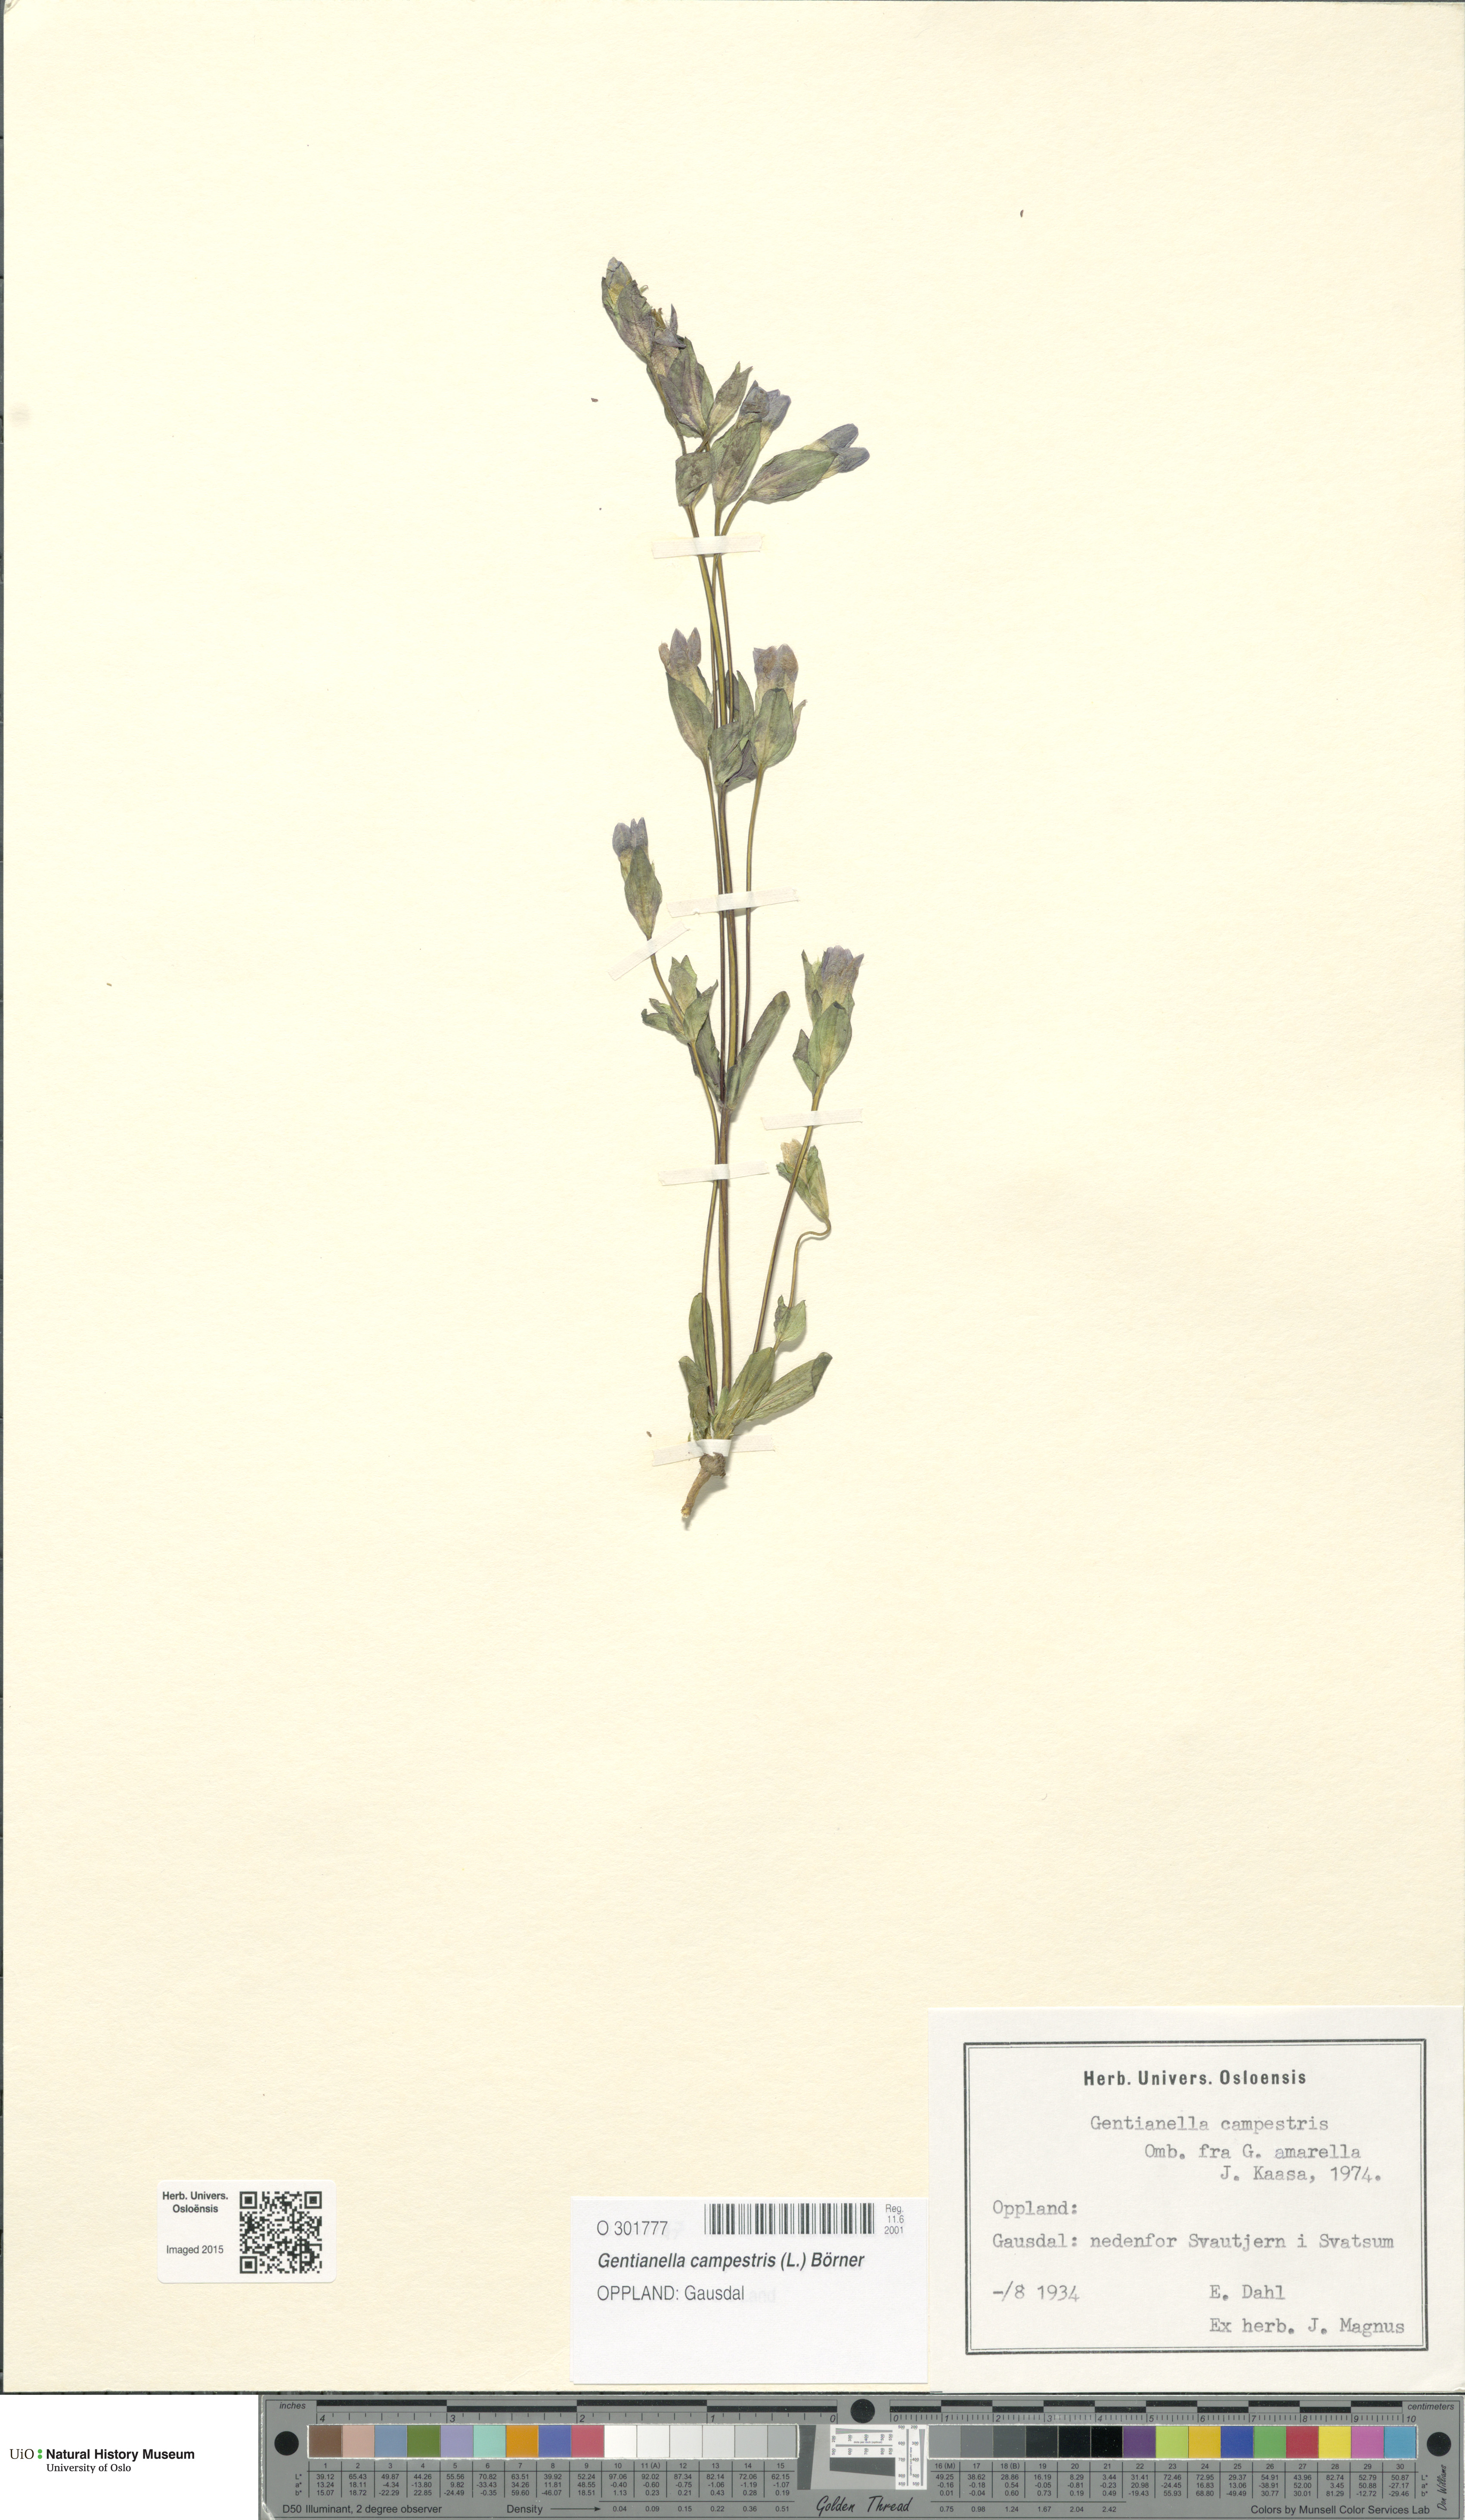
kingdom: Plantae
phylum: Tracheophyta
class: Magnoliopsida
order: Gentianales
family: Gentianaceae
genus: Gentianella
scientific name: Gentianella campestris
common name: Field gentian
